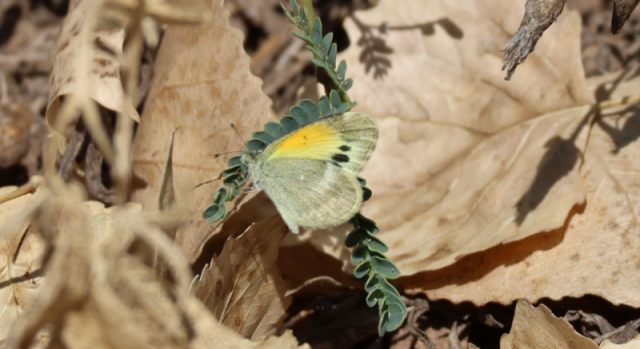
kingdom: Animalia
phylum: Arthropoda
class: Insecta
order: Lepidoptera
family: Pieridae
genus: Nathalis
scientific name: Nathalis iole
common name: Dainty Sulphur
